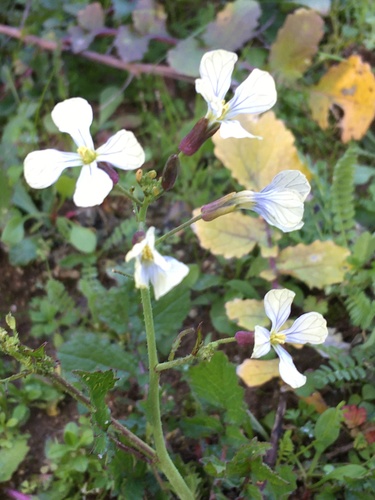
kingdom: Plantae
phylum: Tracheophyta
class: Magnoliopsida
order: Brassicales
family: Brassicaceae
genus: Raphanus
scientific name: Raphanus raphanistrum
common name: Wild radish
